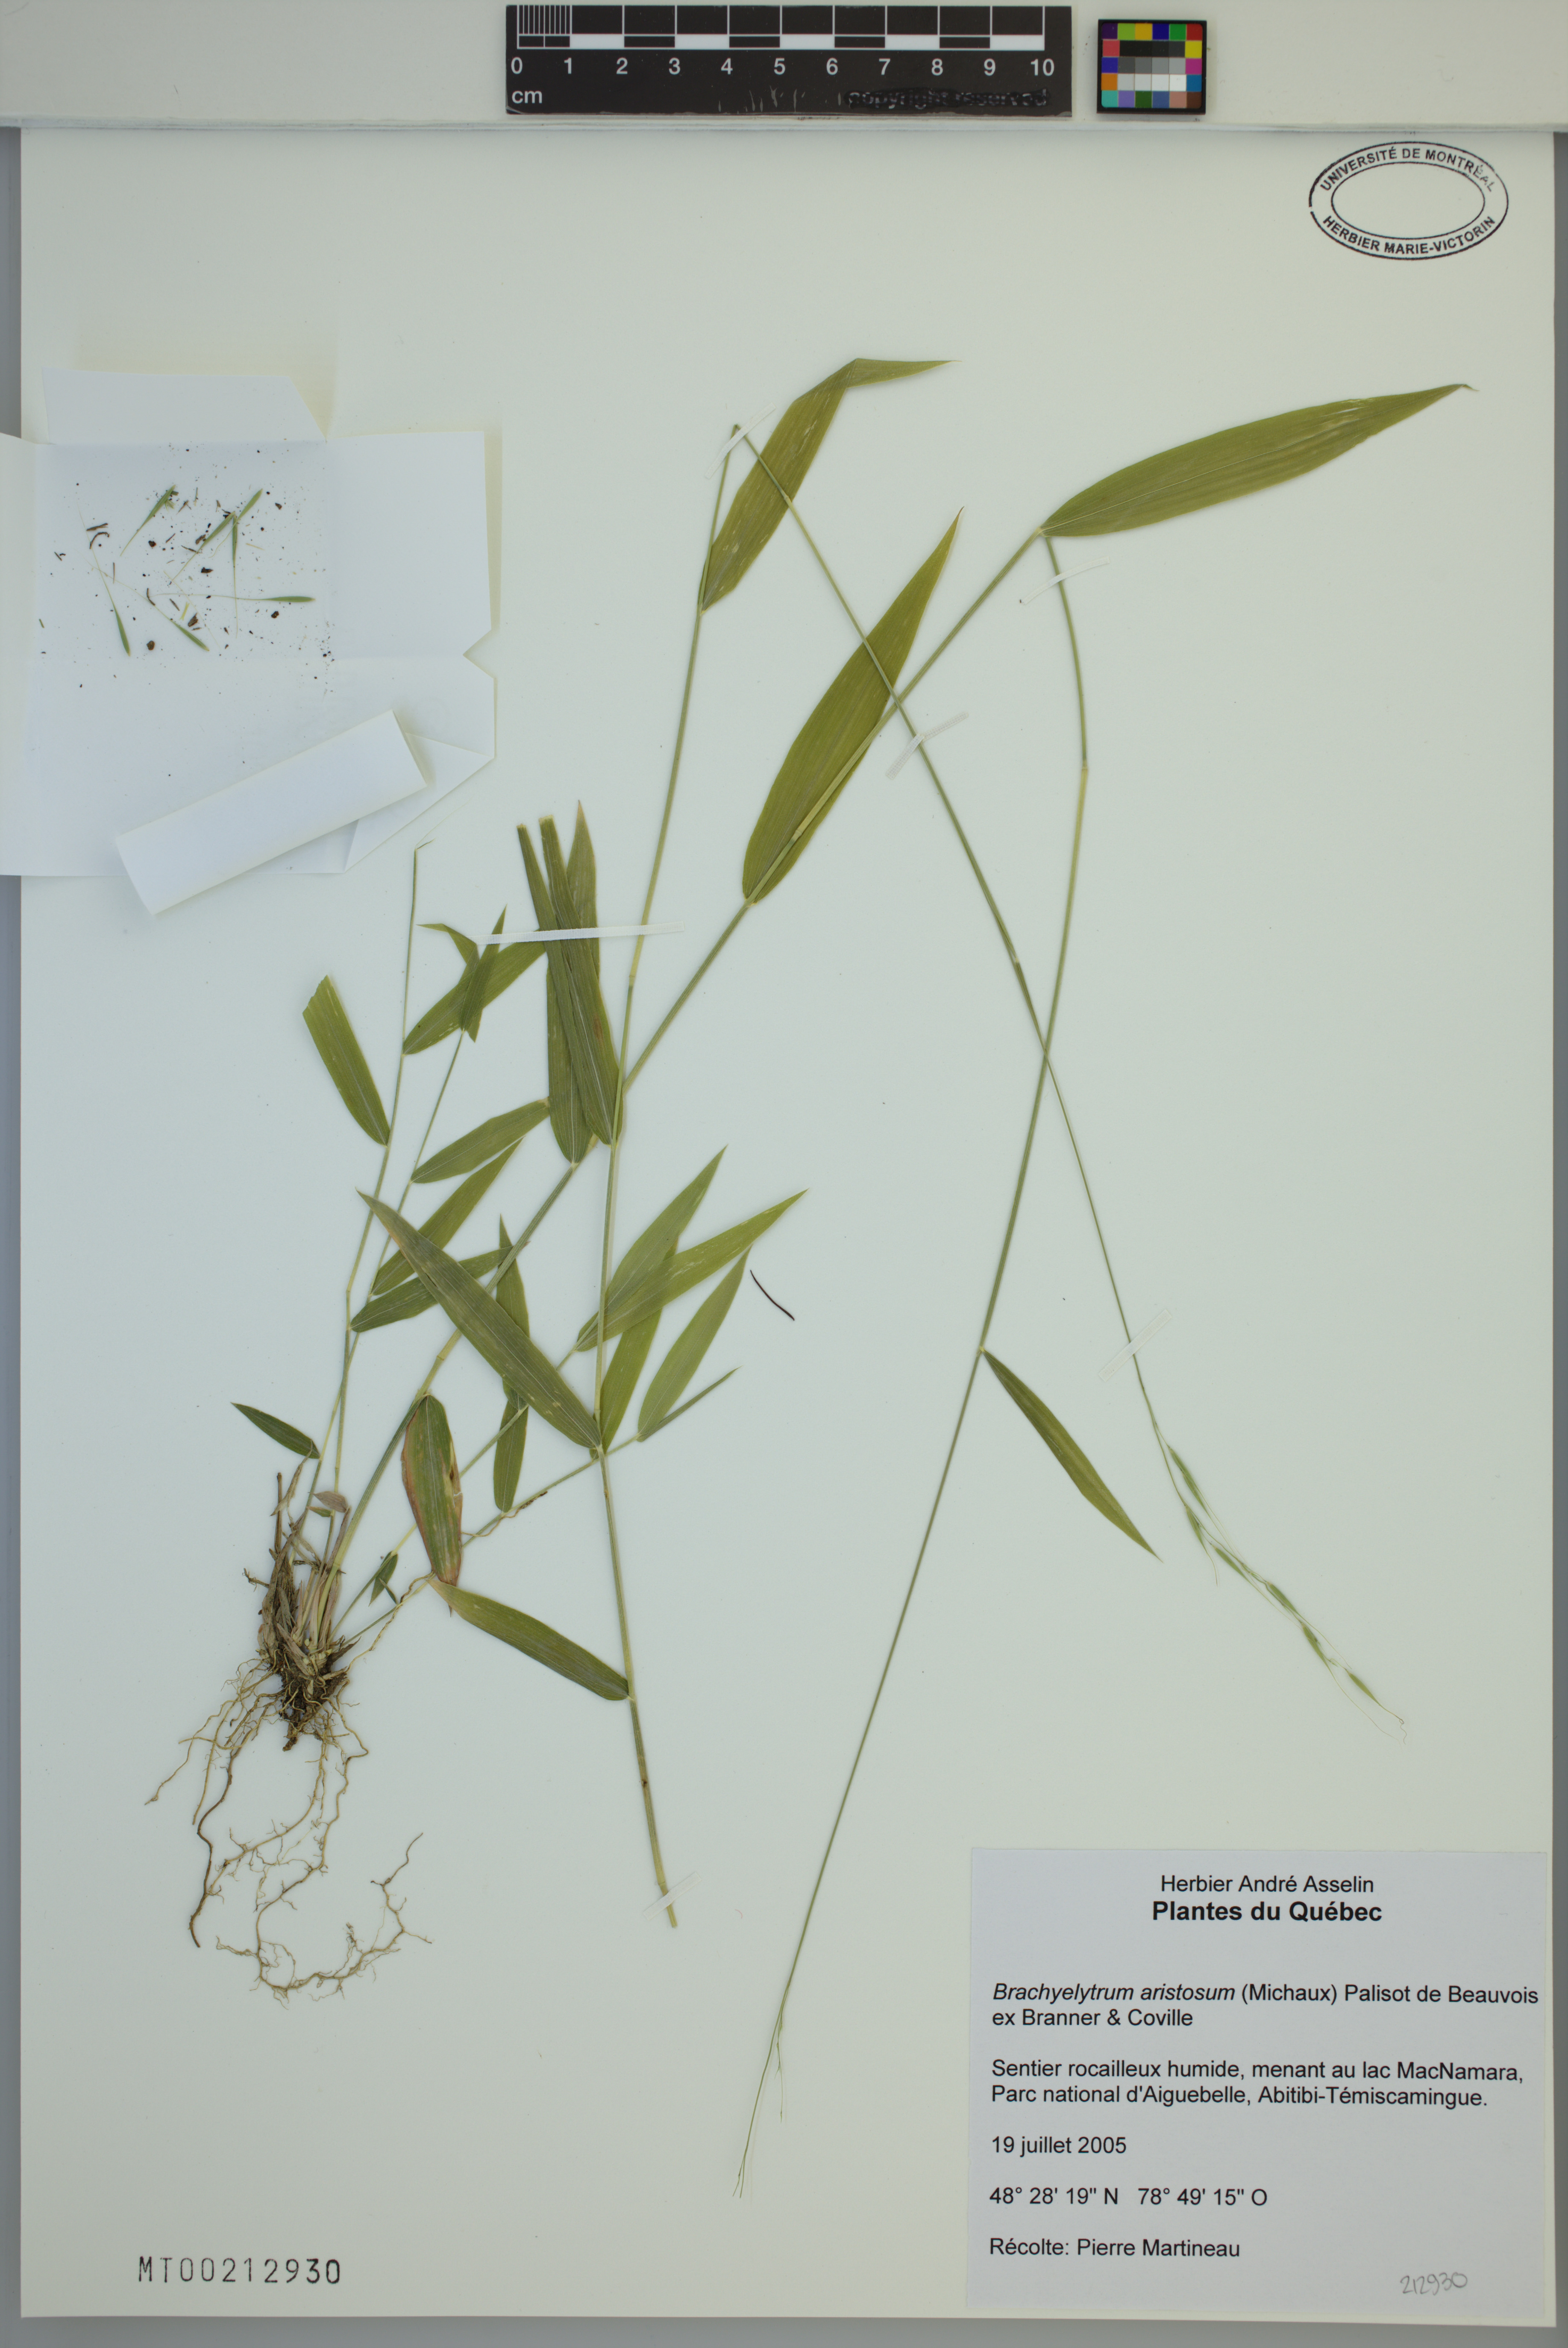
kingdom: Plantae
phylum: Tracheophyta
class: Liliopsida
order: Poales
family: Poaceae
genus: Brachyelytrum
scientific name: Brachyelytrum aristosum
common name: Northern shorthusk
